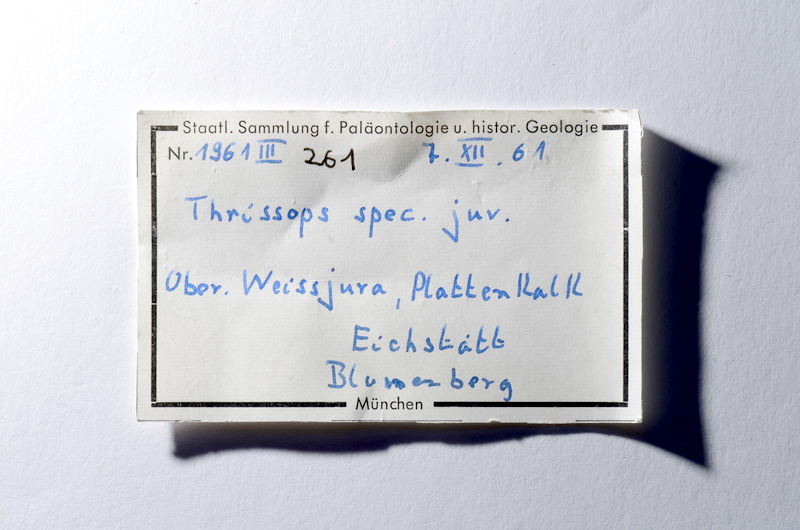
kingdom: Animalia
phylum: Chordata
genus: Thrissops
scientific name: Thrissops
